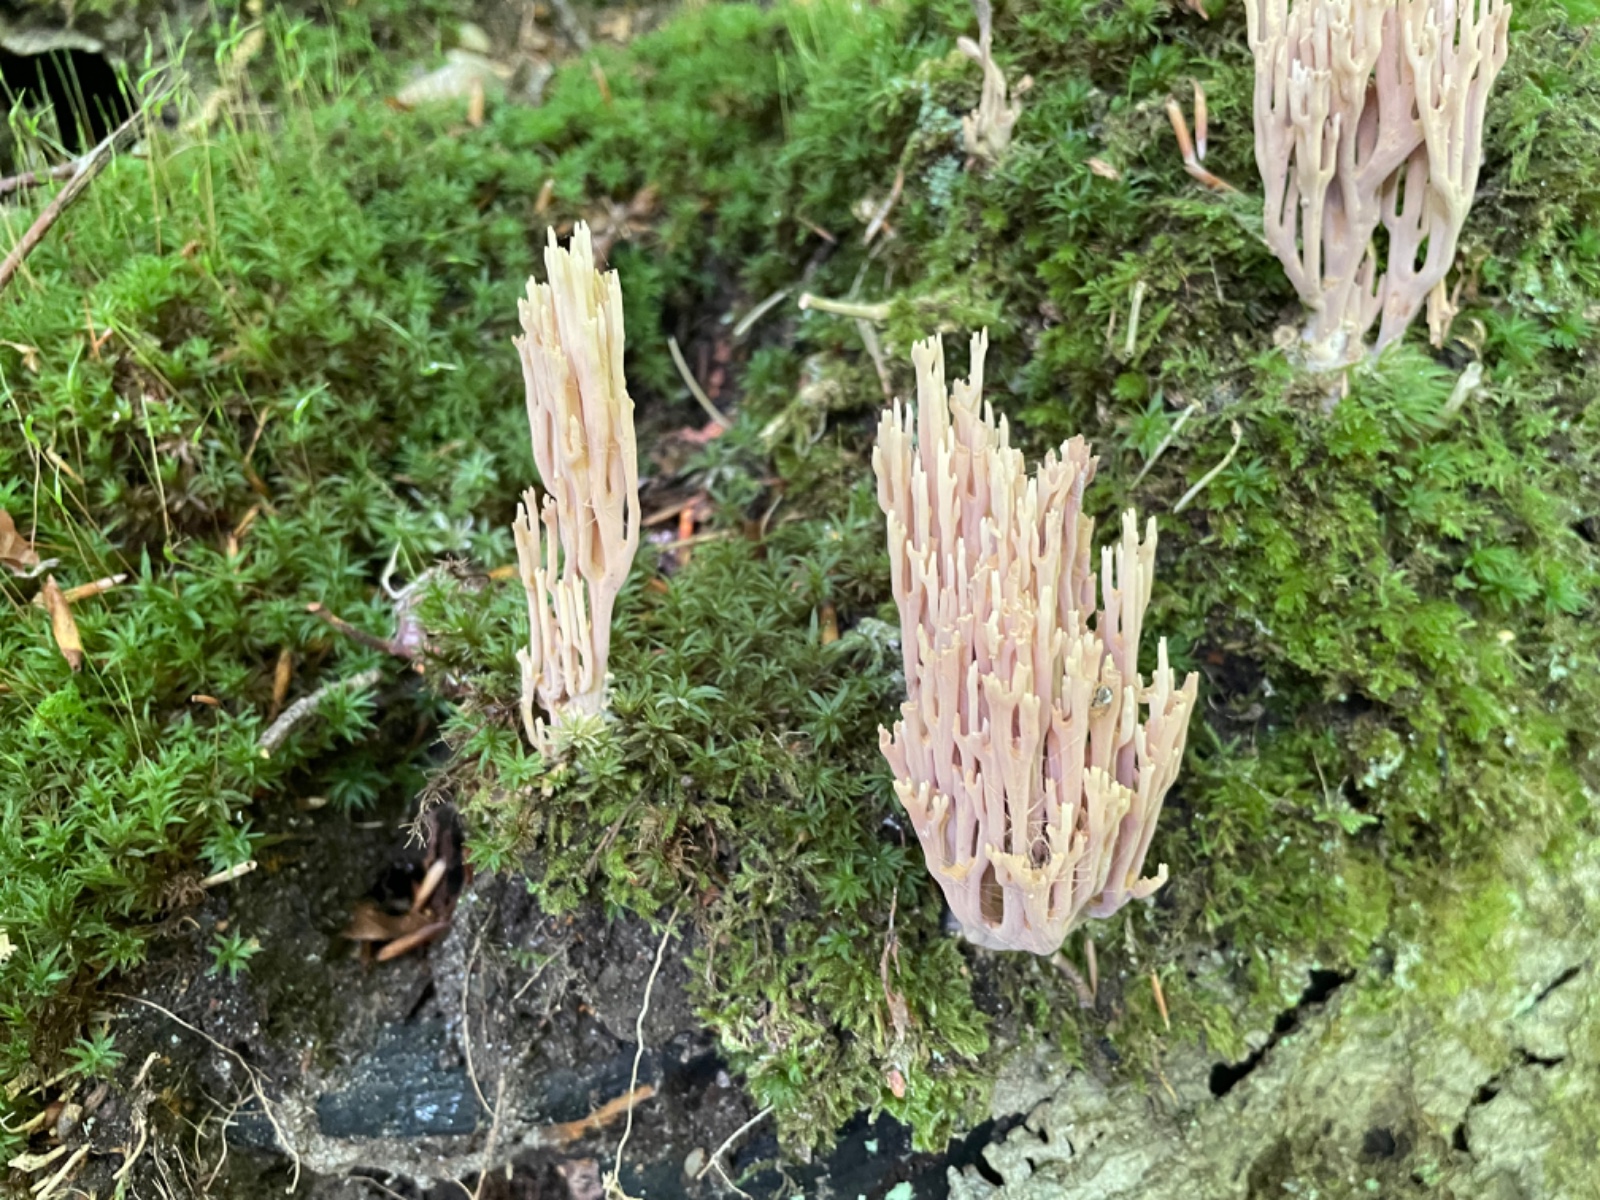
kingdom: Fungi
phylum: Basidiomycota
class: Agaricomycetes
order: Gomphales
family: Gomphaceae
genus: Ramaria
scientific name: Ramaria stricta
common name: rank koralsvamp
